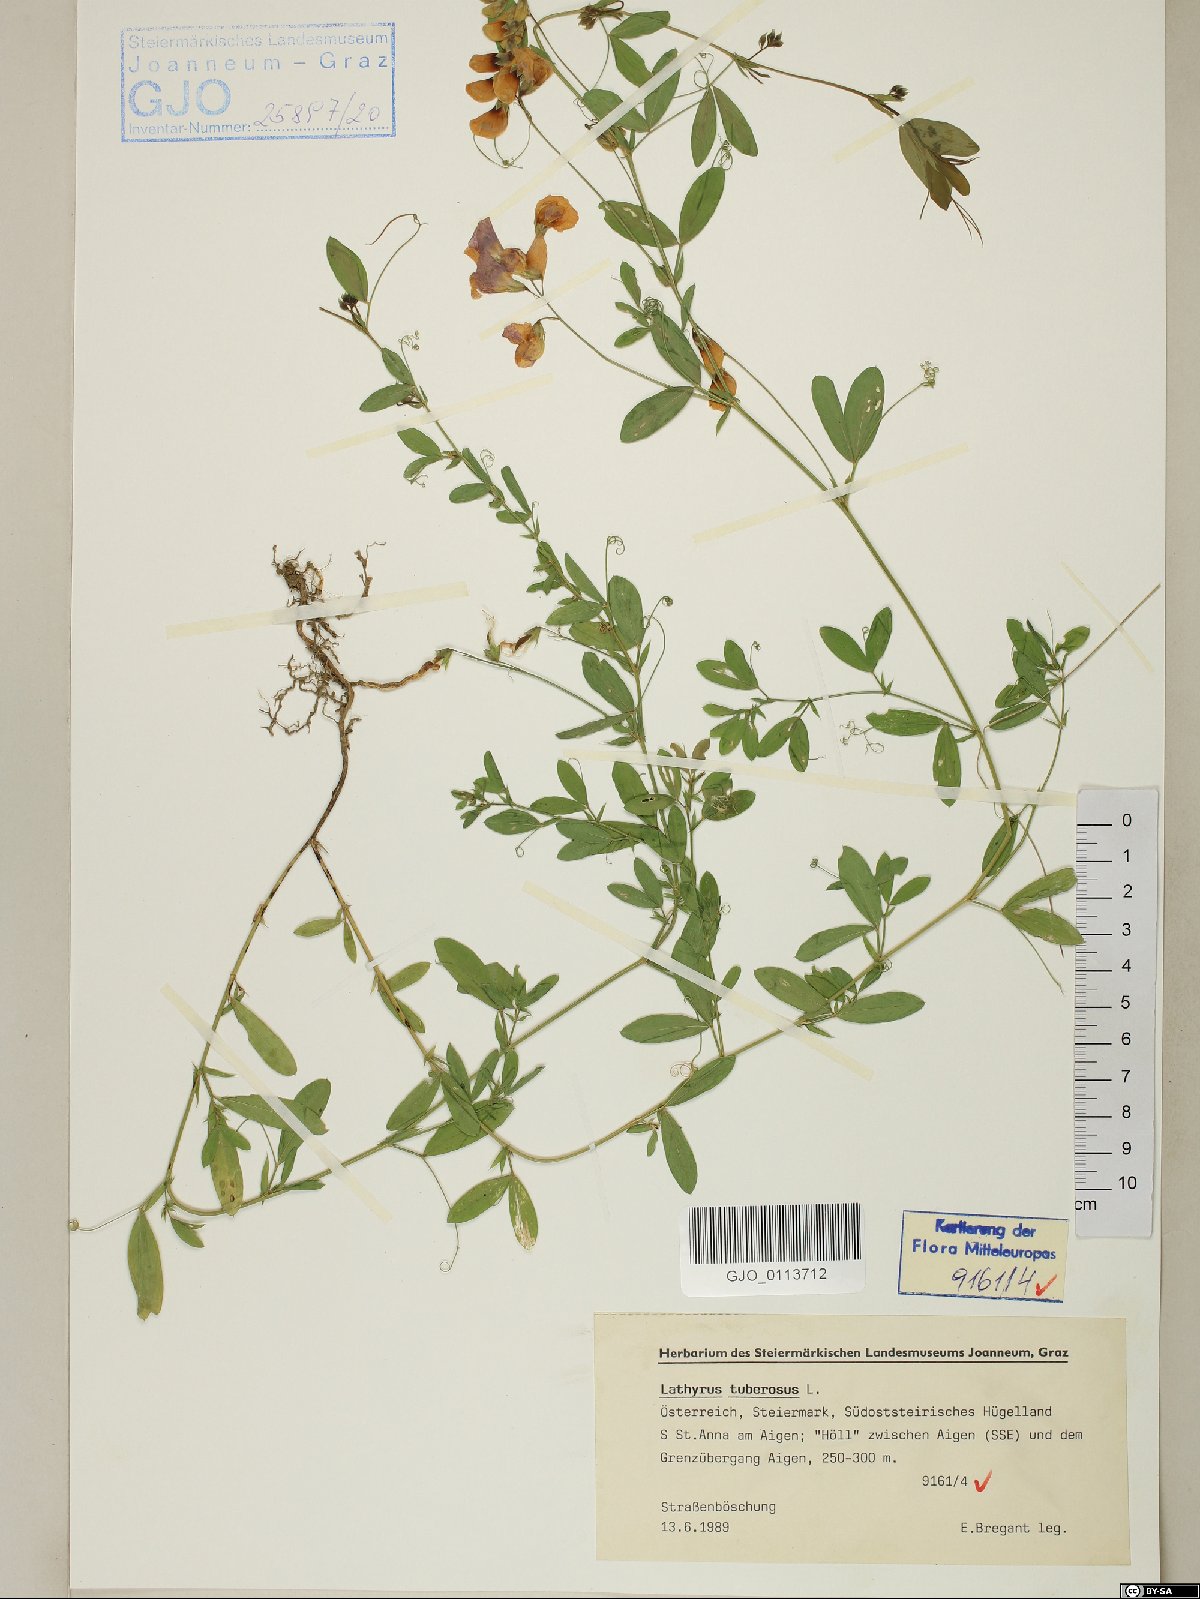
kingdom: Plantae
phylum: Tracheophyta
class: Magnoliopsida
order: Fabales
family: Fabaceae
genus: Lathyrus
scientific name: Lathyrus tuberosus
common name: Tuberous pea
